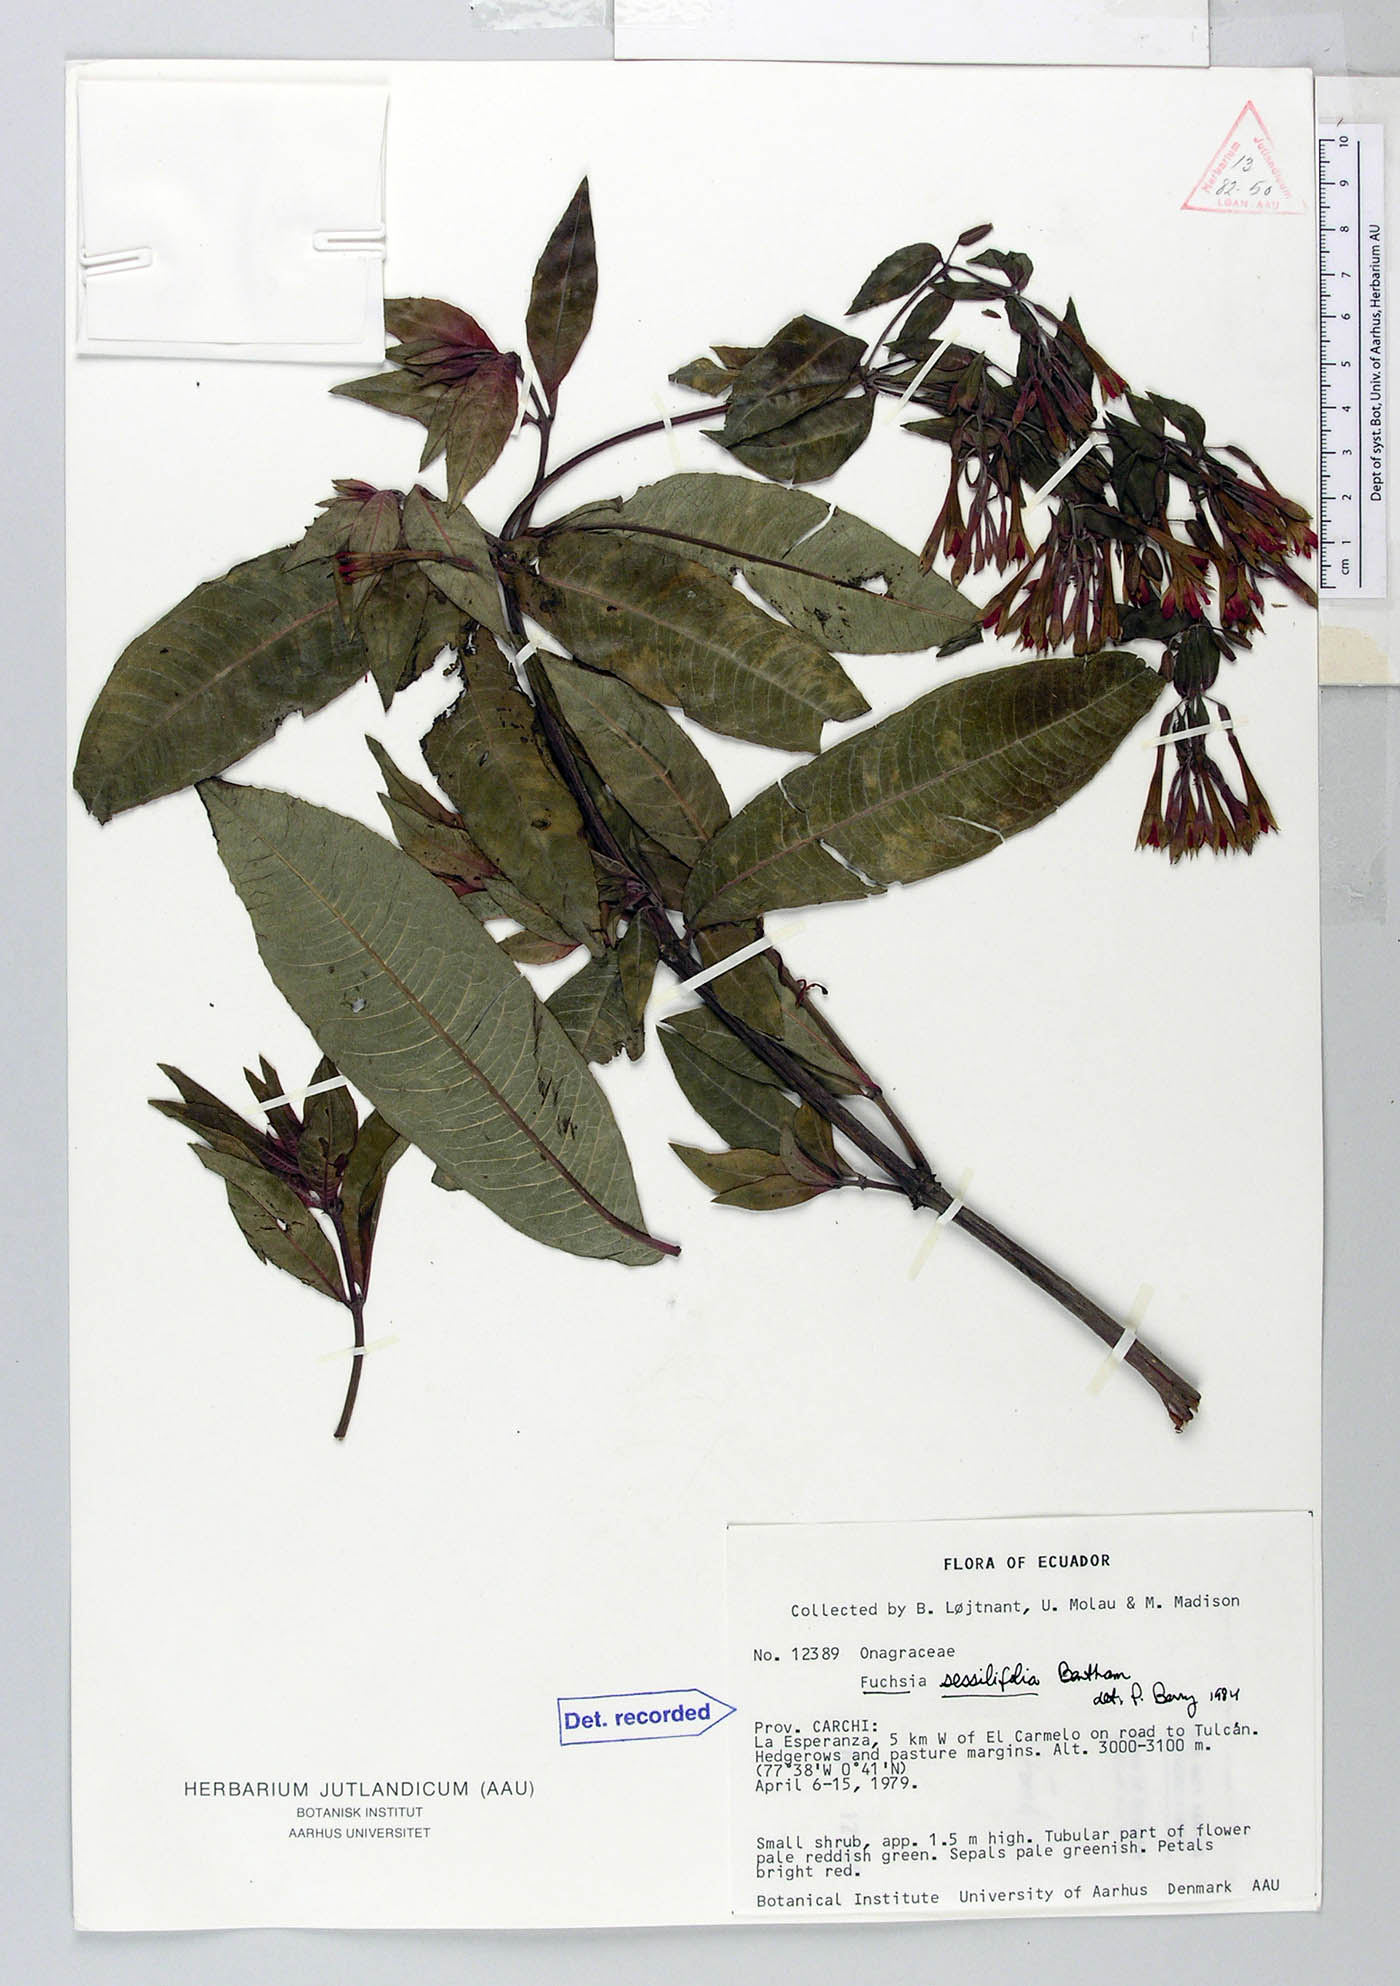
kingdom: Plantae
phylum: Tracheophyta
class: Magnoliopsida
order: Myrtales
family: Onagraceae
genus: Fuchsia
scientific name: Fuchsia sessilifolia
